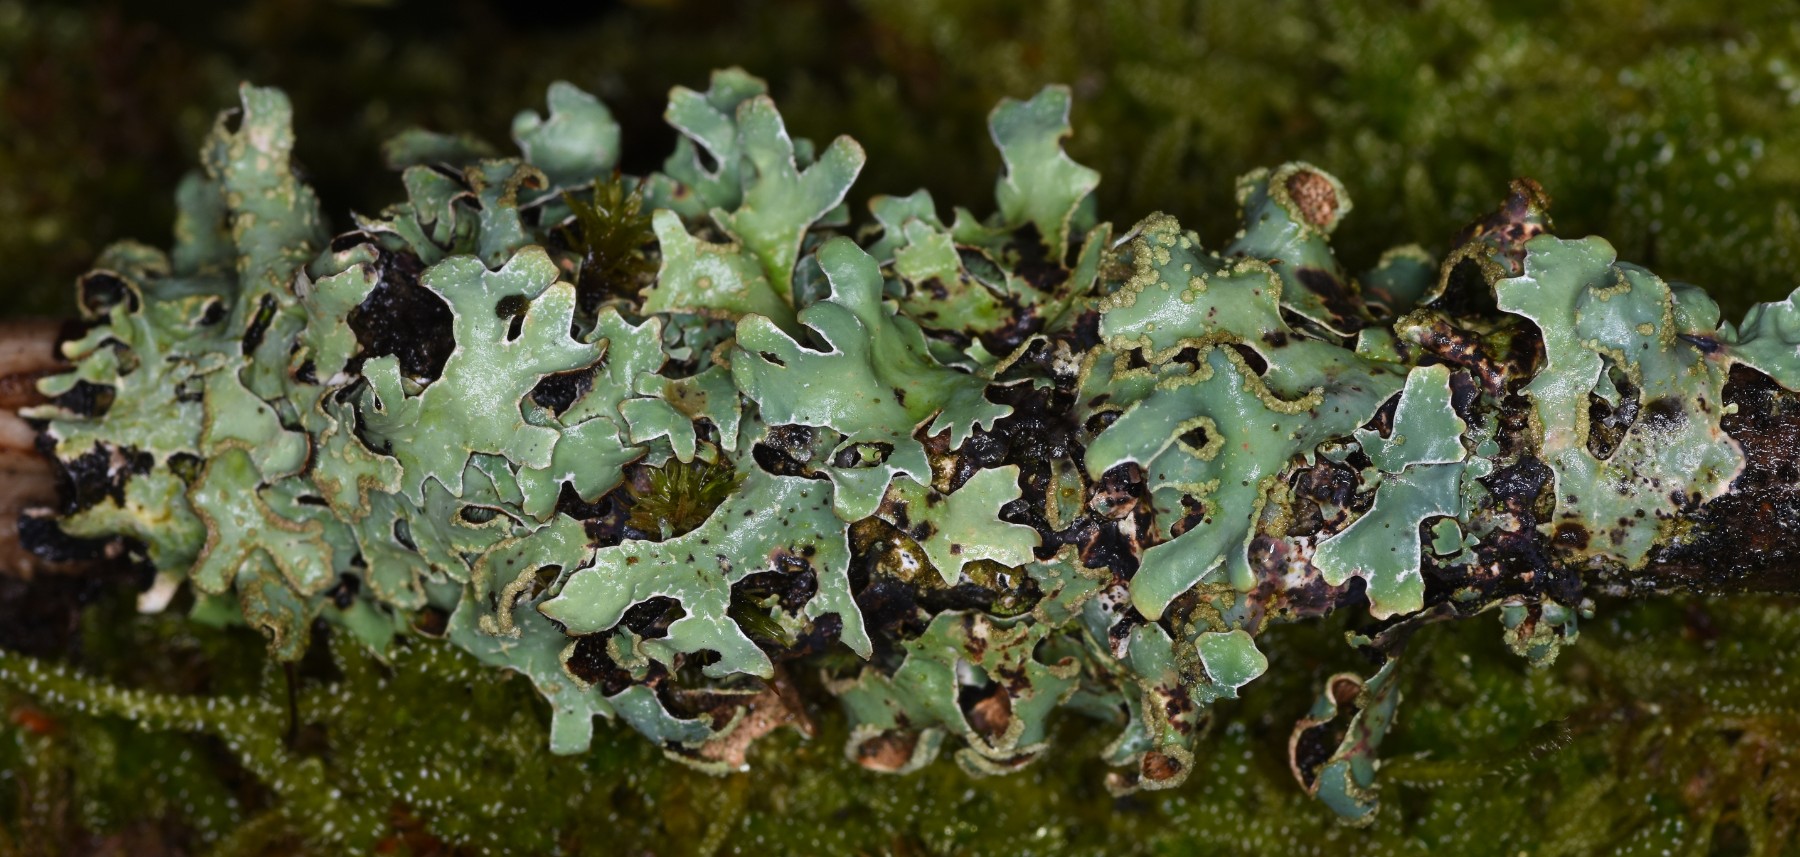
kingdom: Fungi
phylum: Ascomycota
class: Lecanoromycetes
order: Lecanorales
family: Parmeliaceae
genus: Parmelia
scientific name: Parmelia sulcata
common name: rynket skållav
